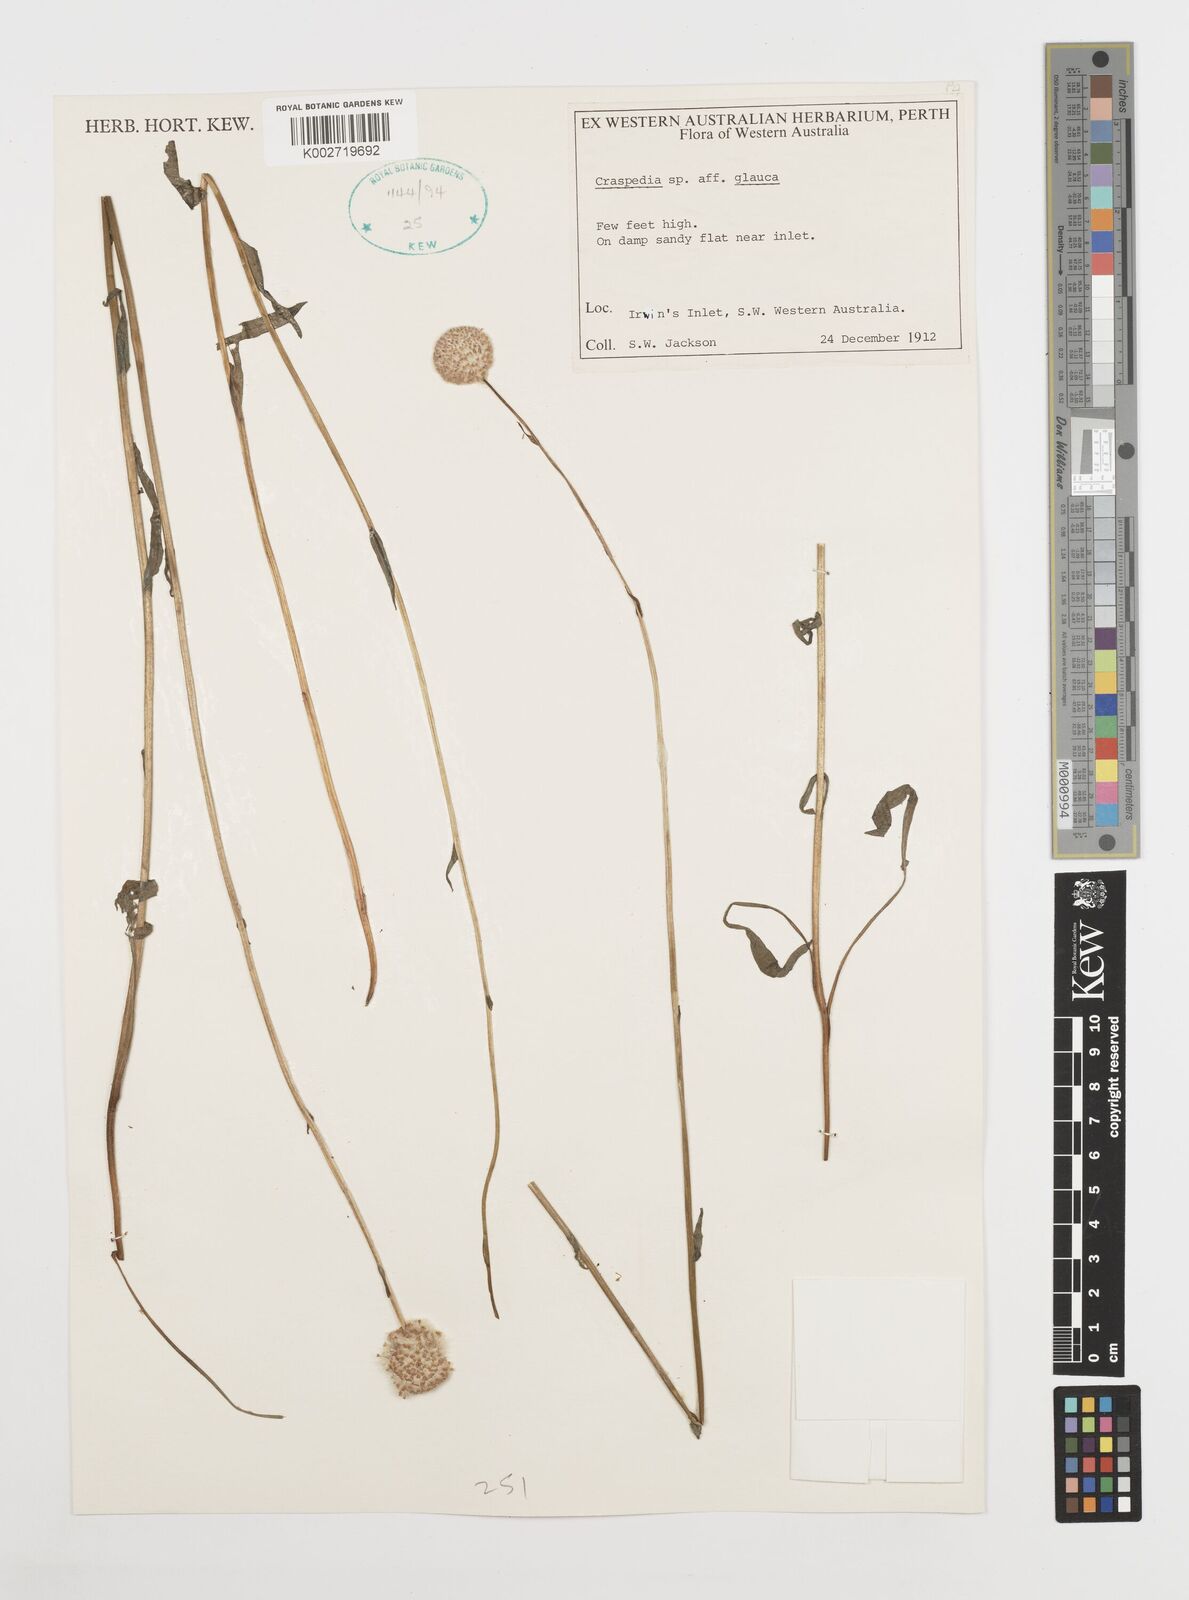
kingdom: Plantae
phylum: Tracheophyta
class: Magnoliopsida
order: Asterales
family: Asteraceae
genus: Craspedia
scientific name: Craspedia glauca
